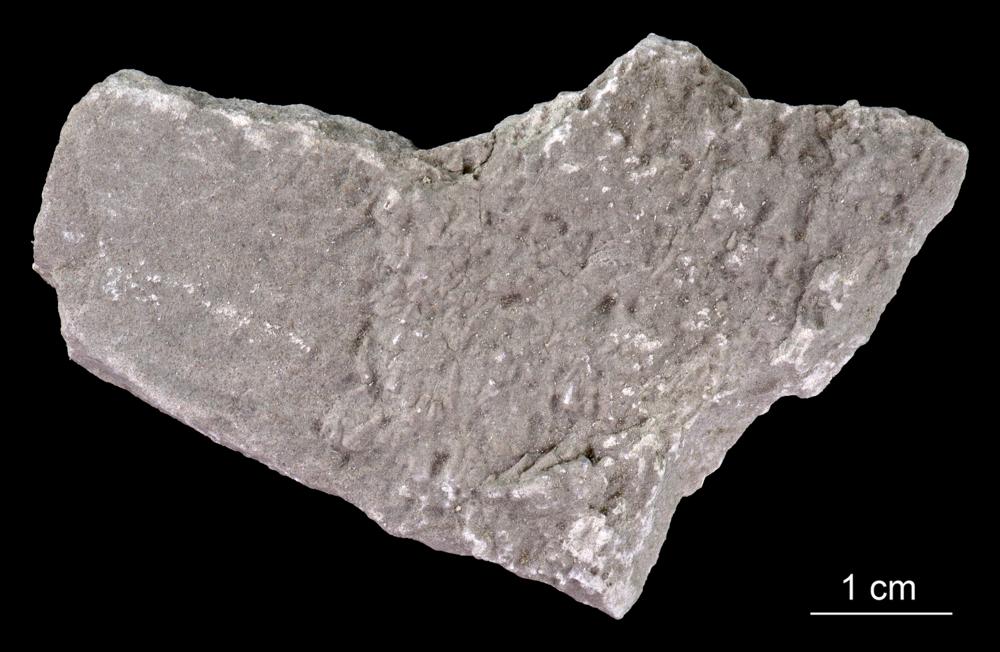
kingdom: Animalia
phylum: Annelida
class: Polychaeta
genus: Volborthella
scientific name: Volborthella tenuis
